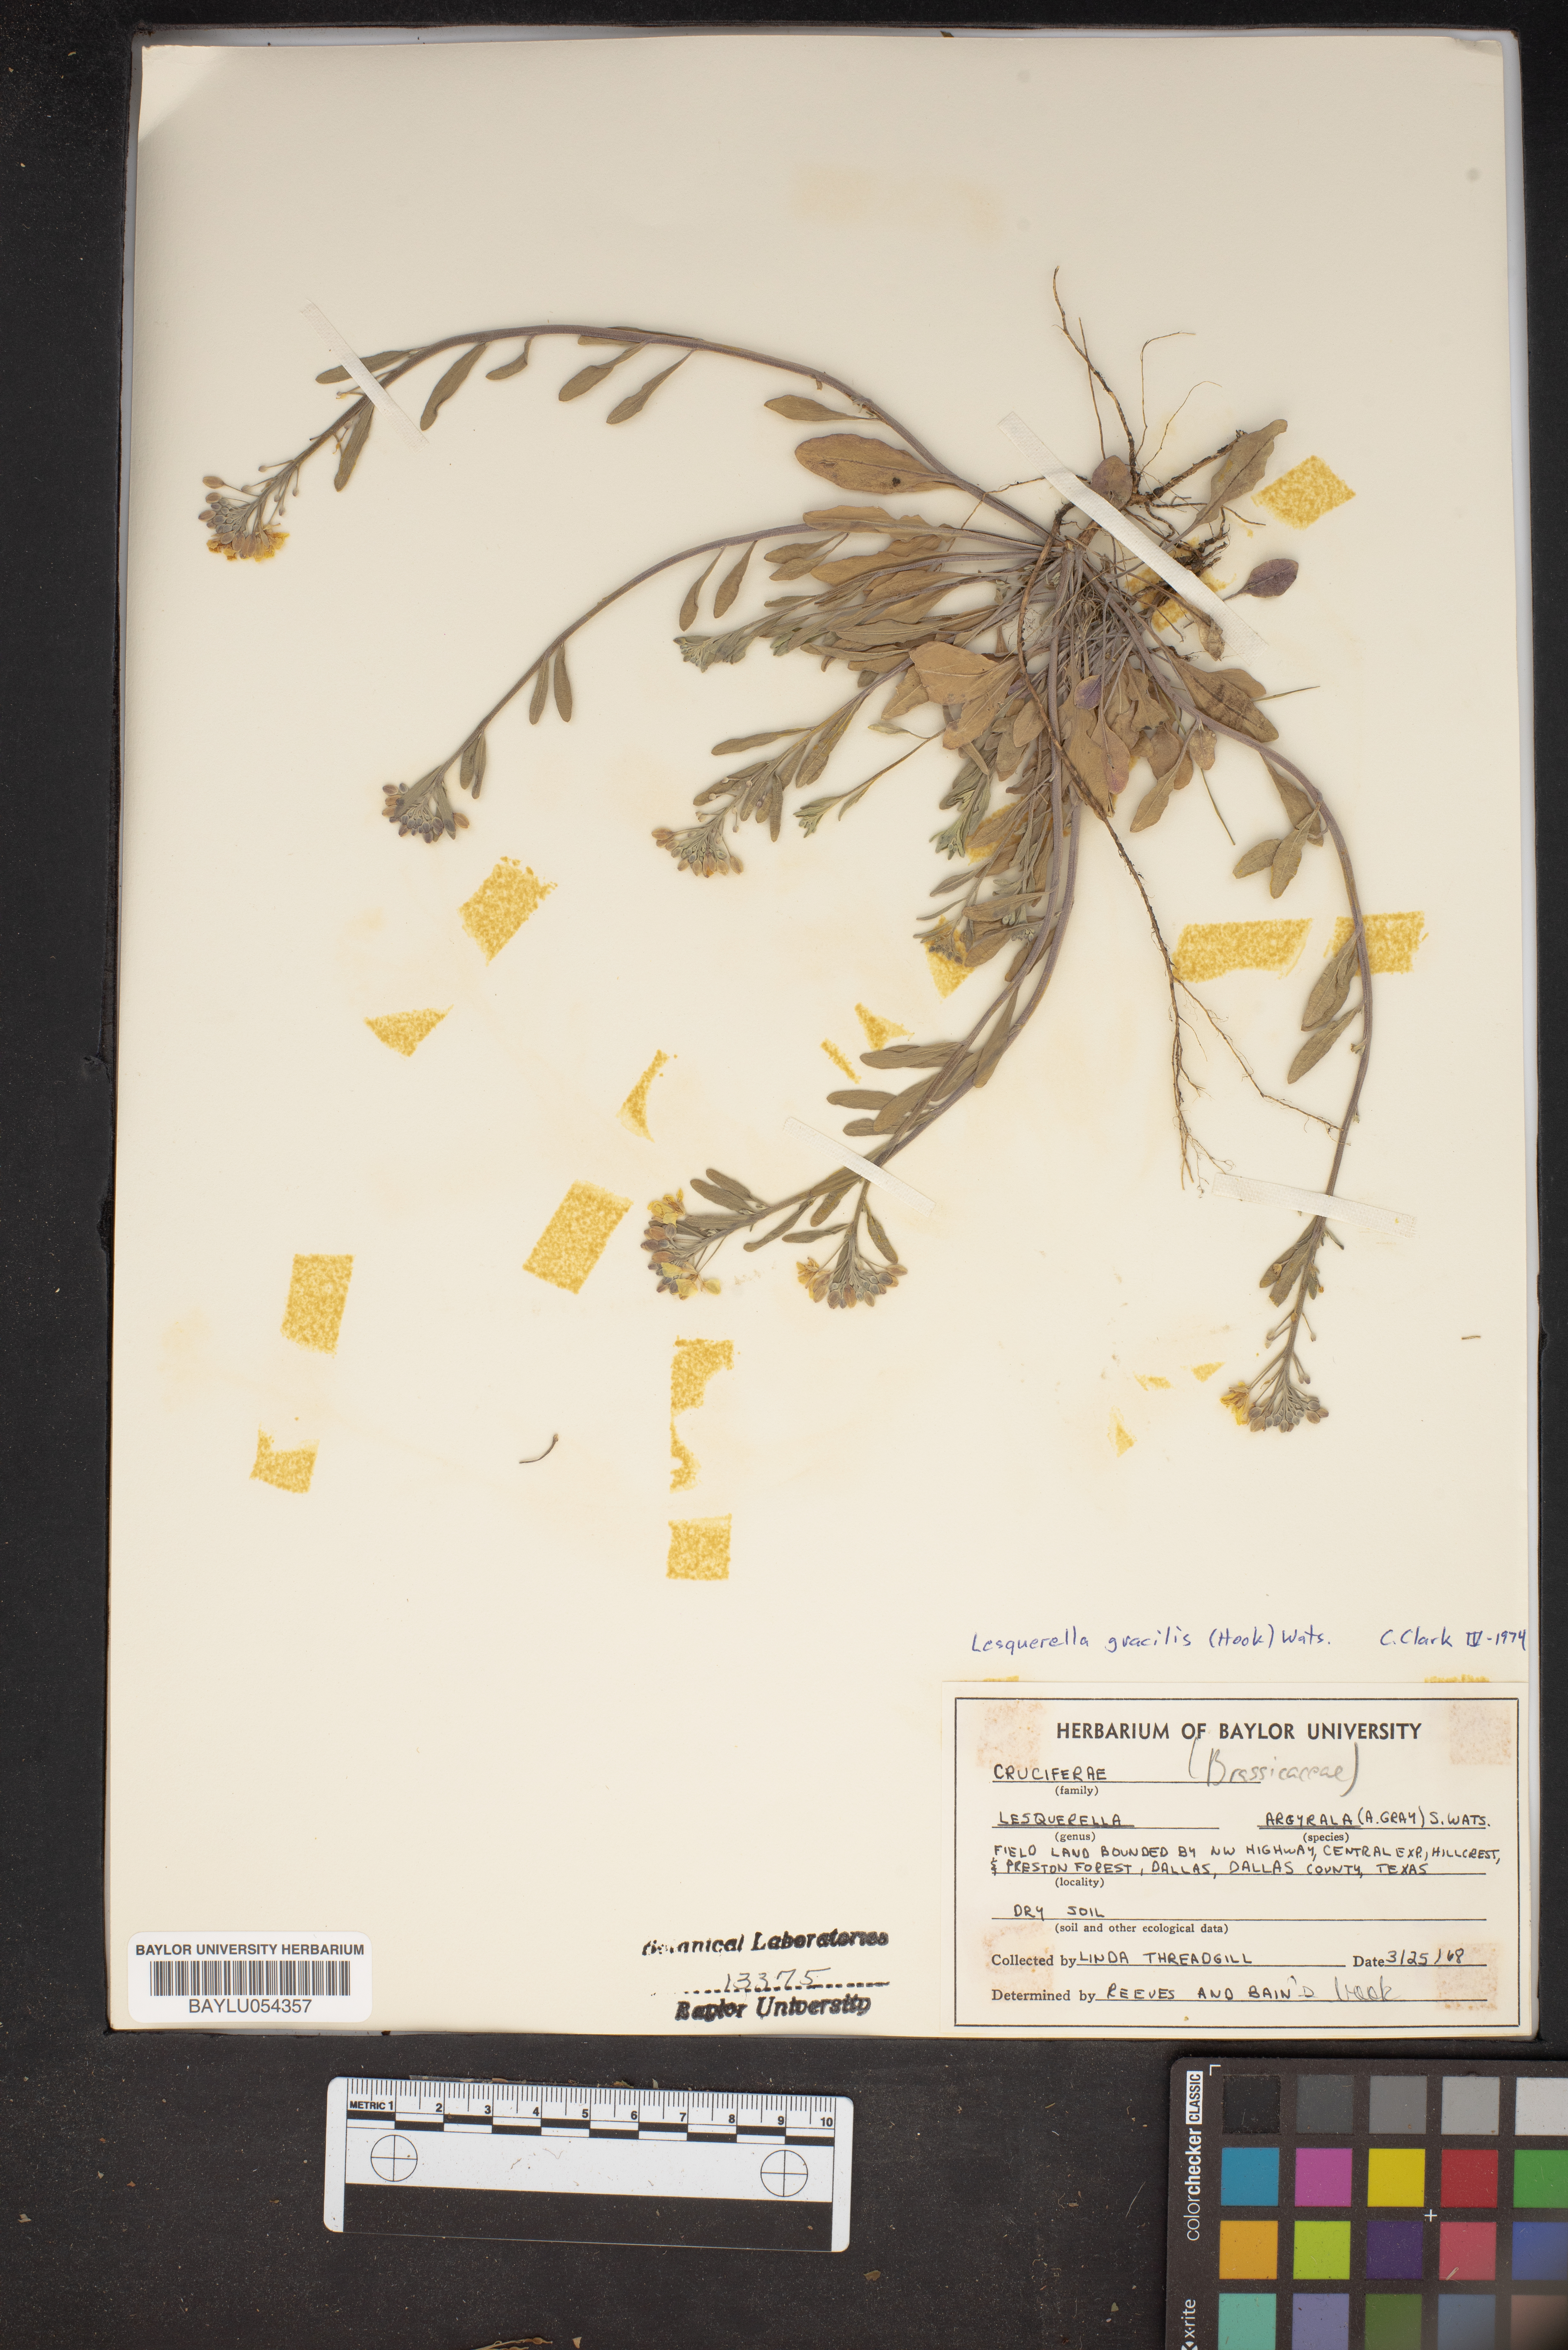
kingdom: Plantae
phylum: Tracheophyta
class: Magnoliopsida
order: Brassicales
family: Brassicaceae
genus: Physaria
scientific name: Physaria gracilis
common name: Spreading bladderpod
